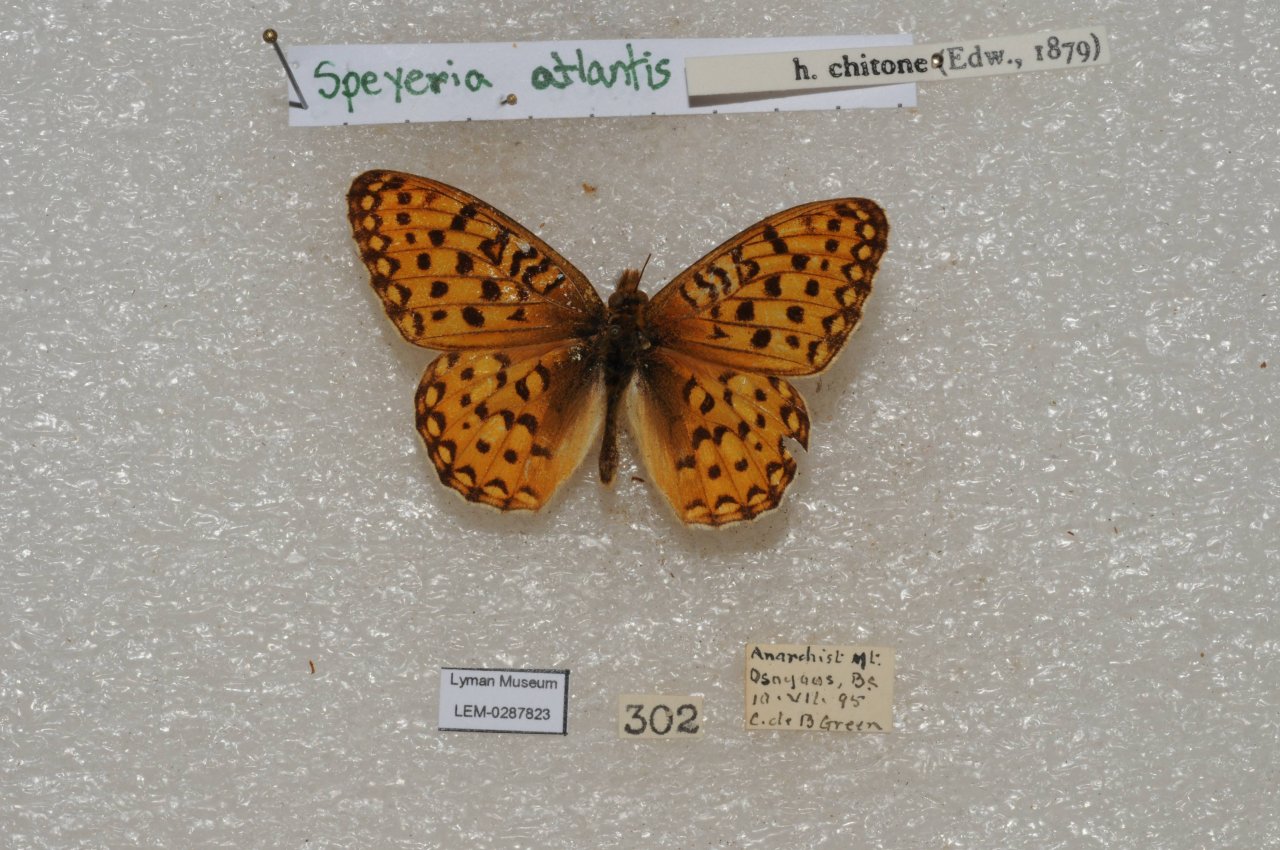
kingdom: Animalia
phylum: Arthropoda
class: Insecta
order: Lepidoptera
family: Nymphalidae
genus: Speyeria
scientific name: Speyeria atlantis
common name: Atlantis Fritillary
